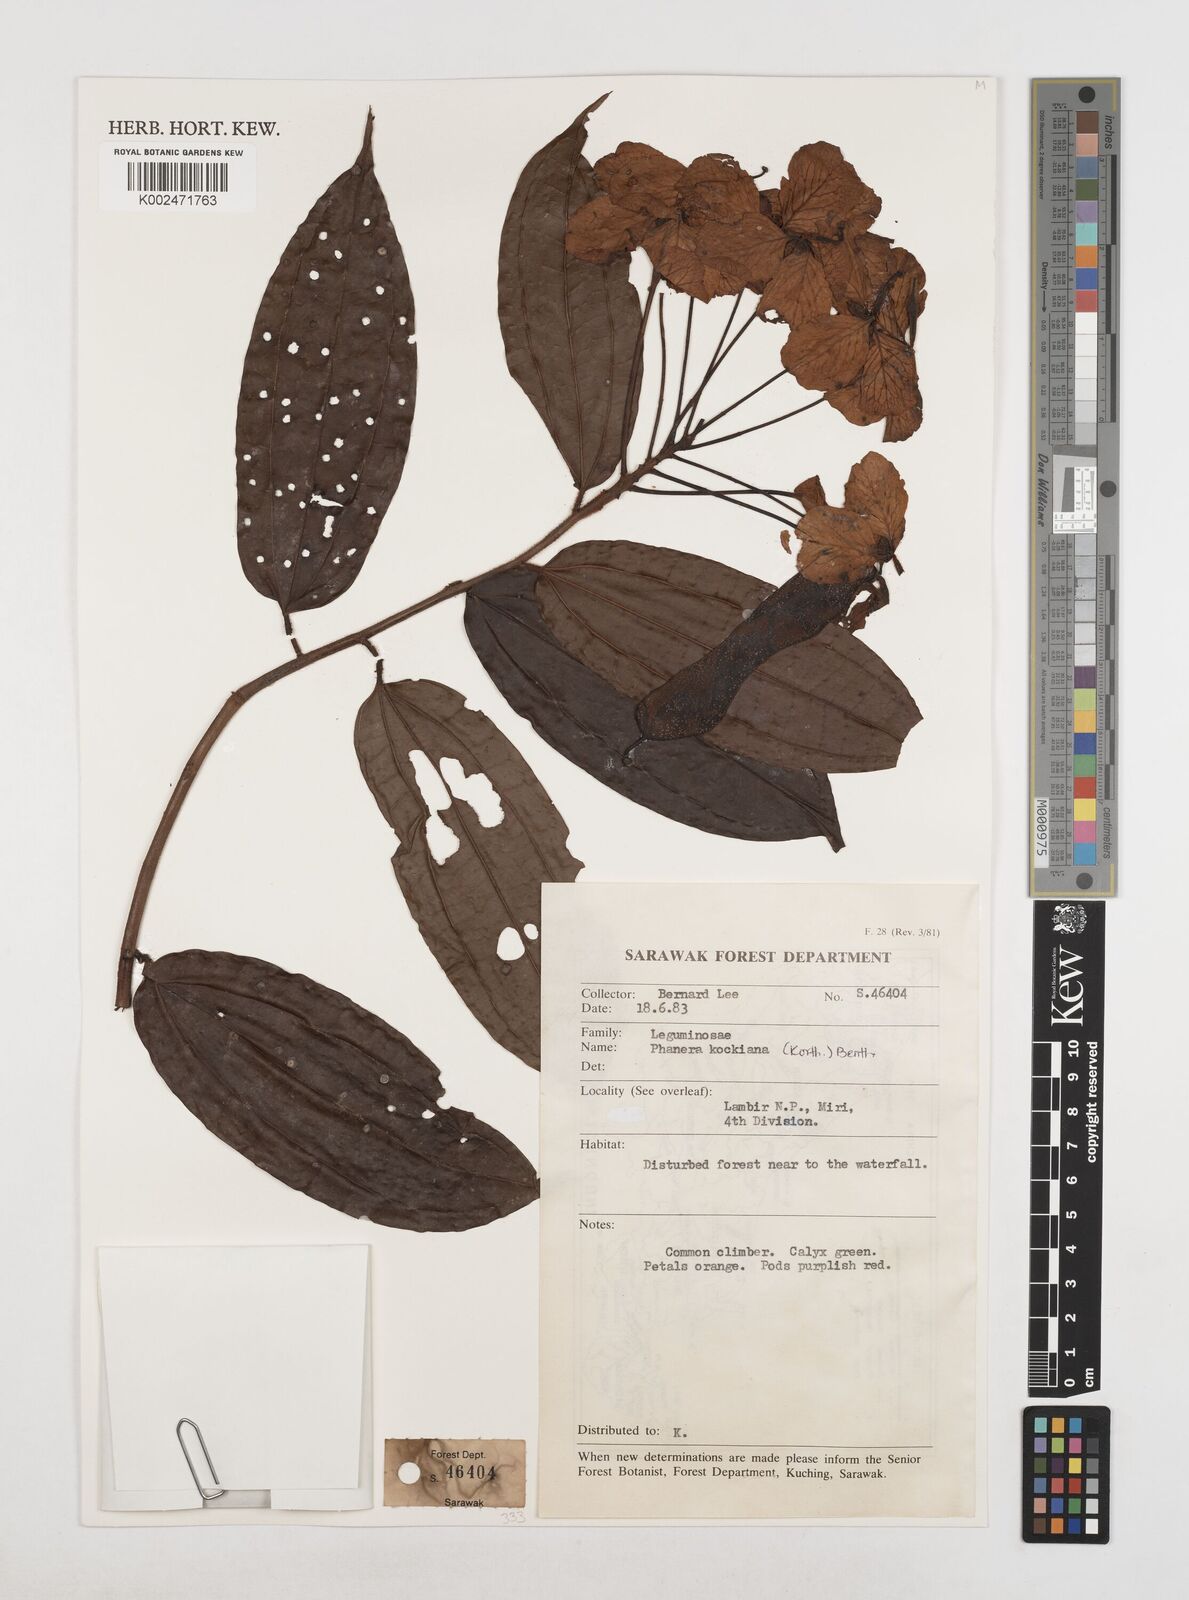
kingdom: Plantae
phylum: Tracheophyta
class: Magnoliopsida
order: Fabales
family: Fabaceae
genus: Phanera
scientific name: Phanera kockiana
